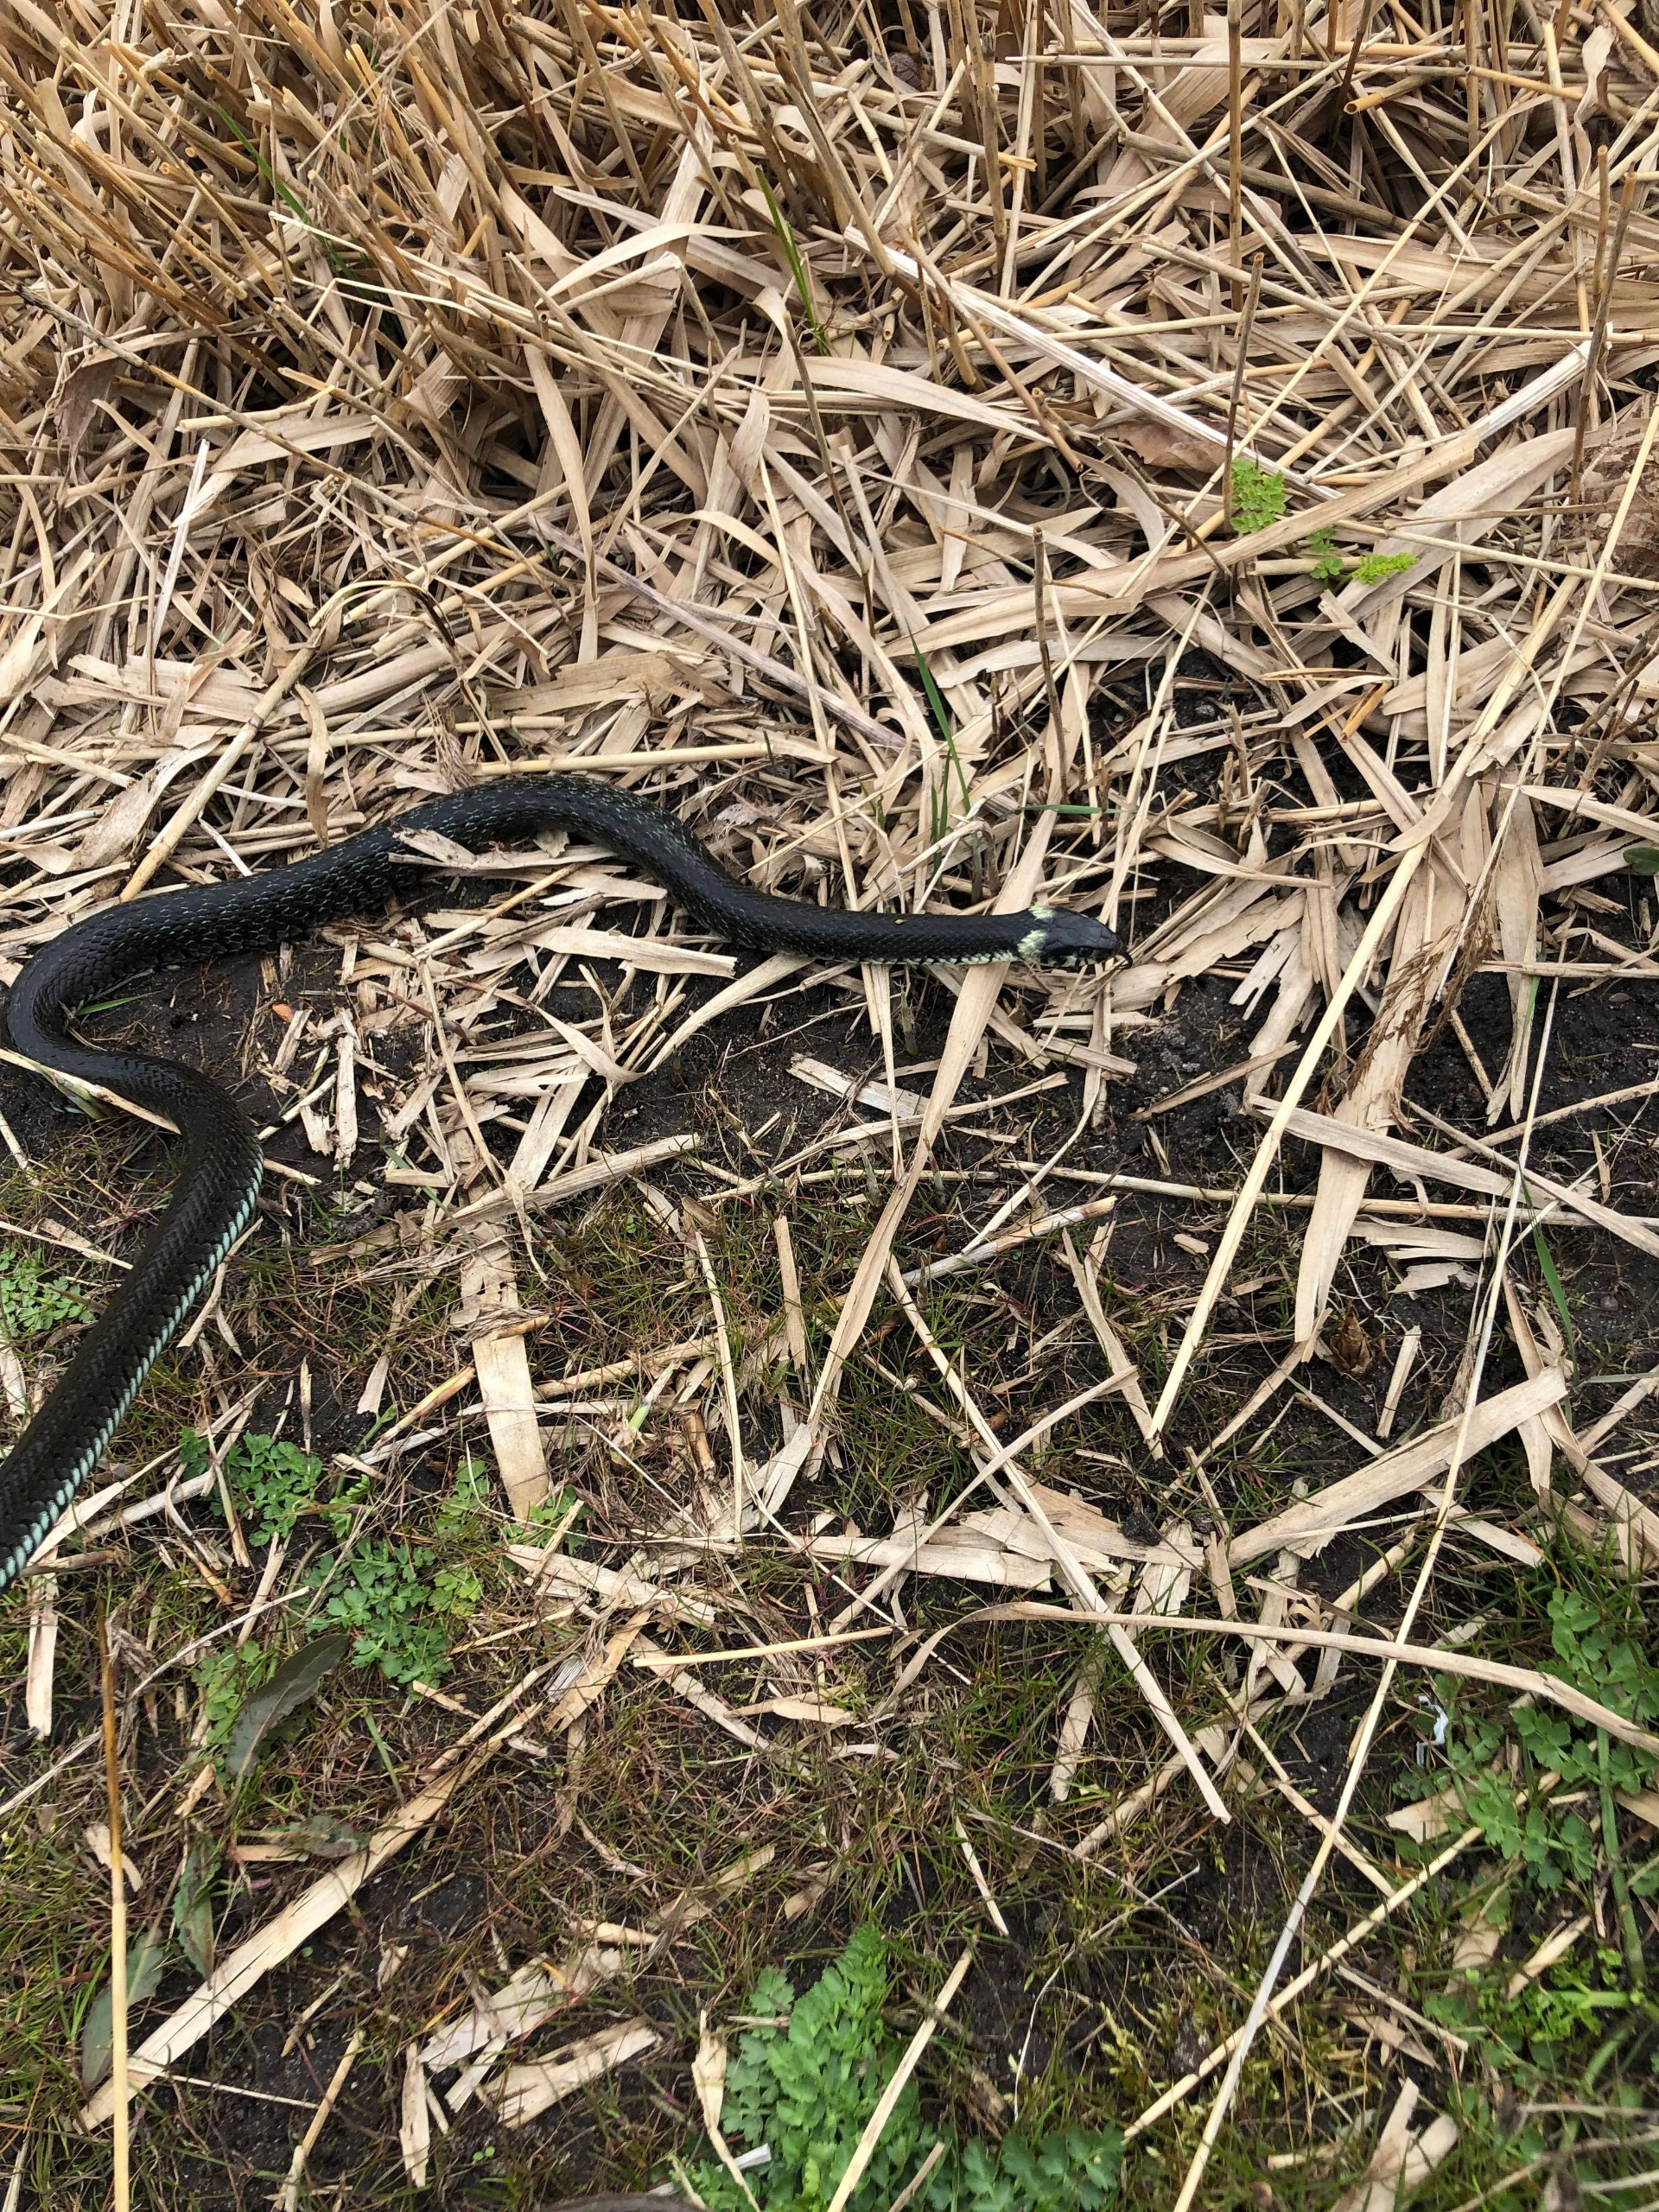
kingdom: Animalia
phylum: Chordata
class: Squamata
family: Colubridae
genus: Natrix
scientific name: Natrix natrix
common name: Snog
